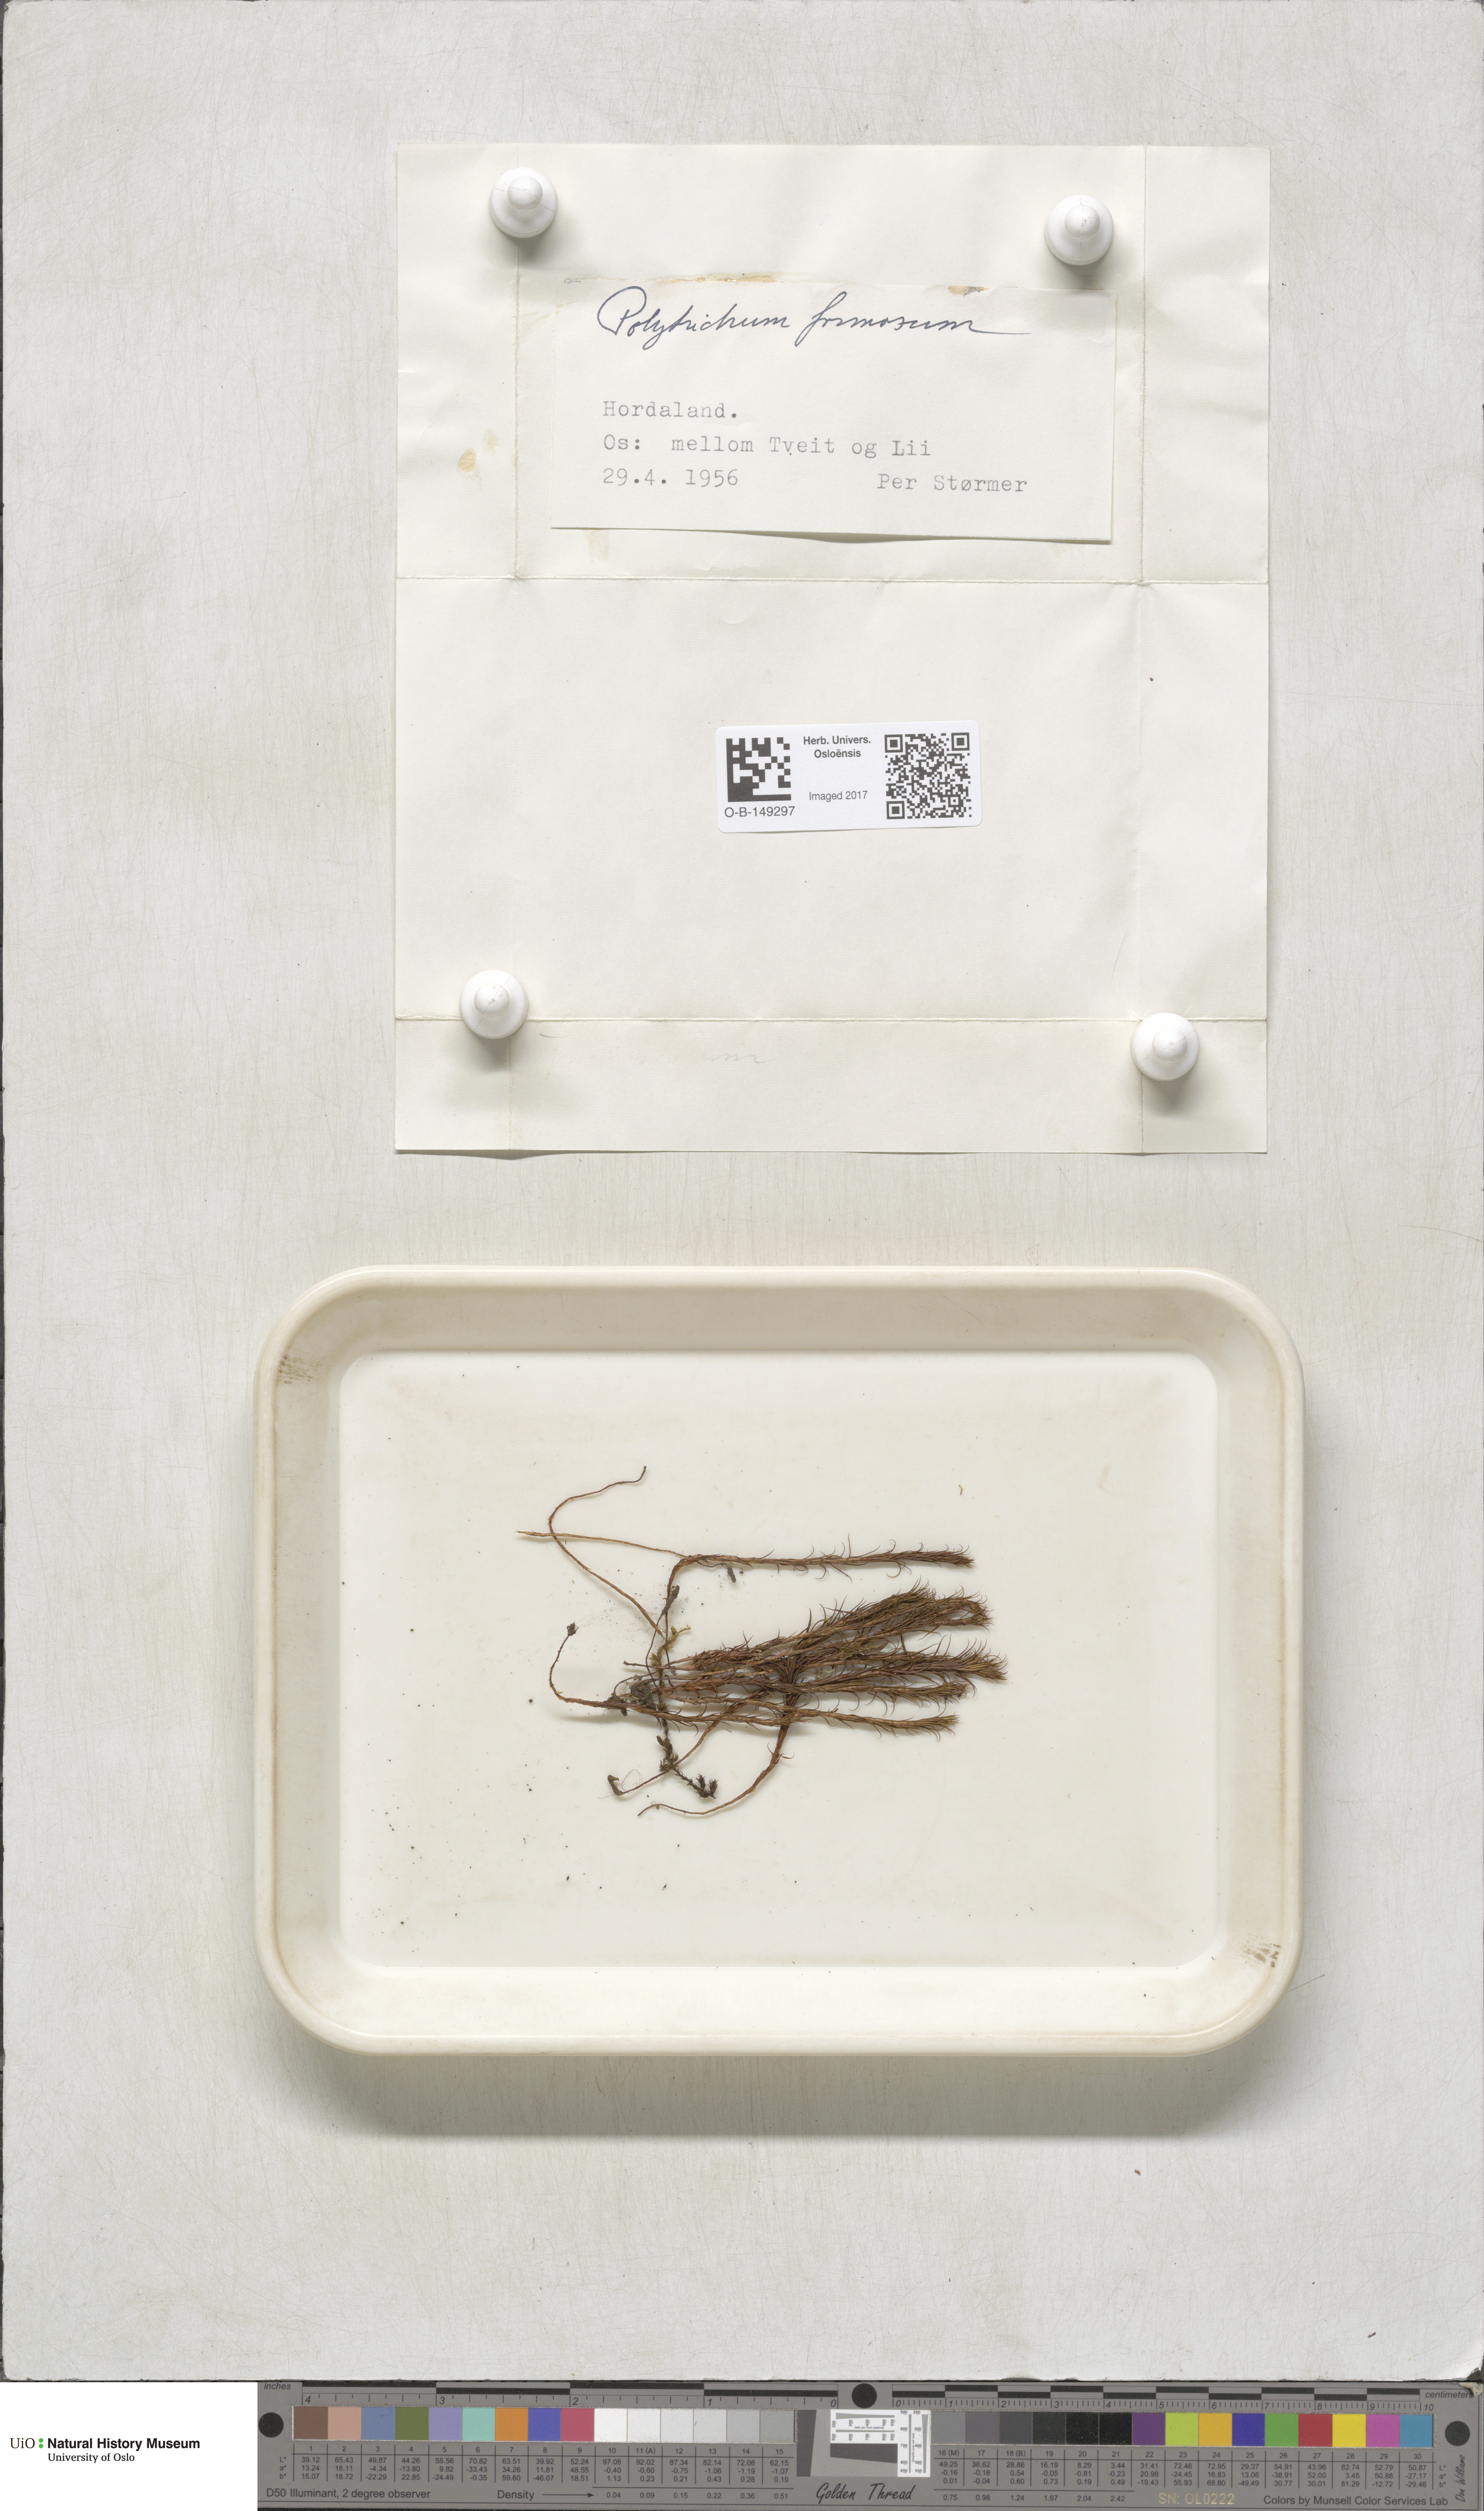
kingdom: Plantae
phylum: Bryophyta
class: Polytrichopsida
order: Polytrichales
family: Polytrichaceae
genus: Polytrichum
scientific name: Polytrichum formosum
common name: Bank haircap moss
